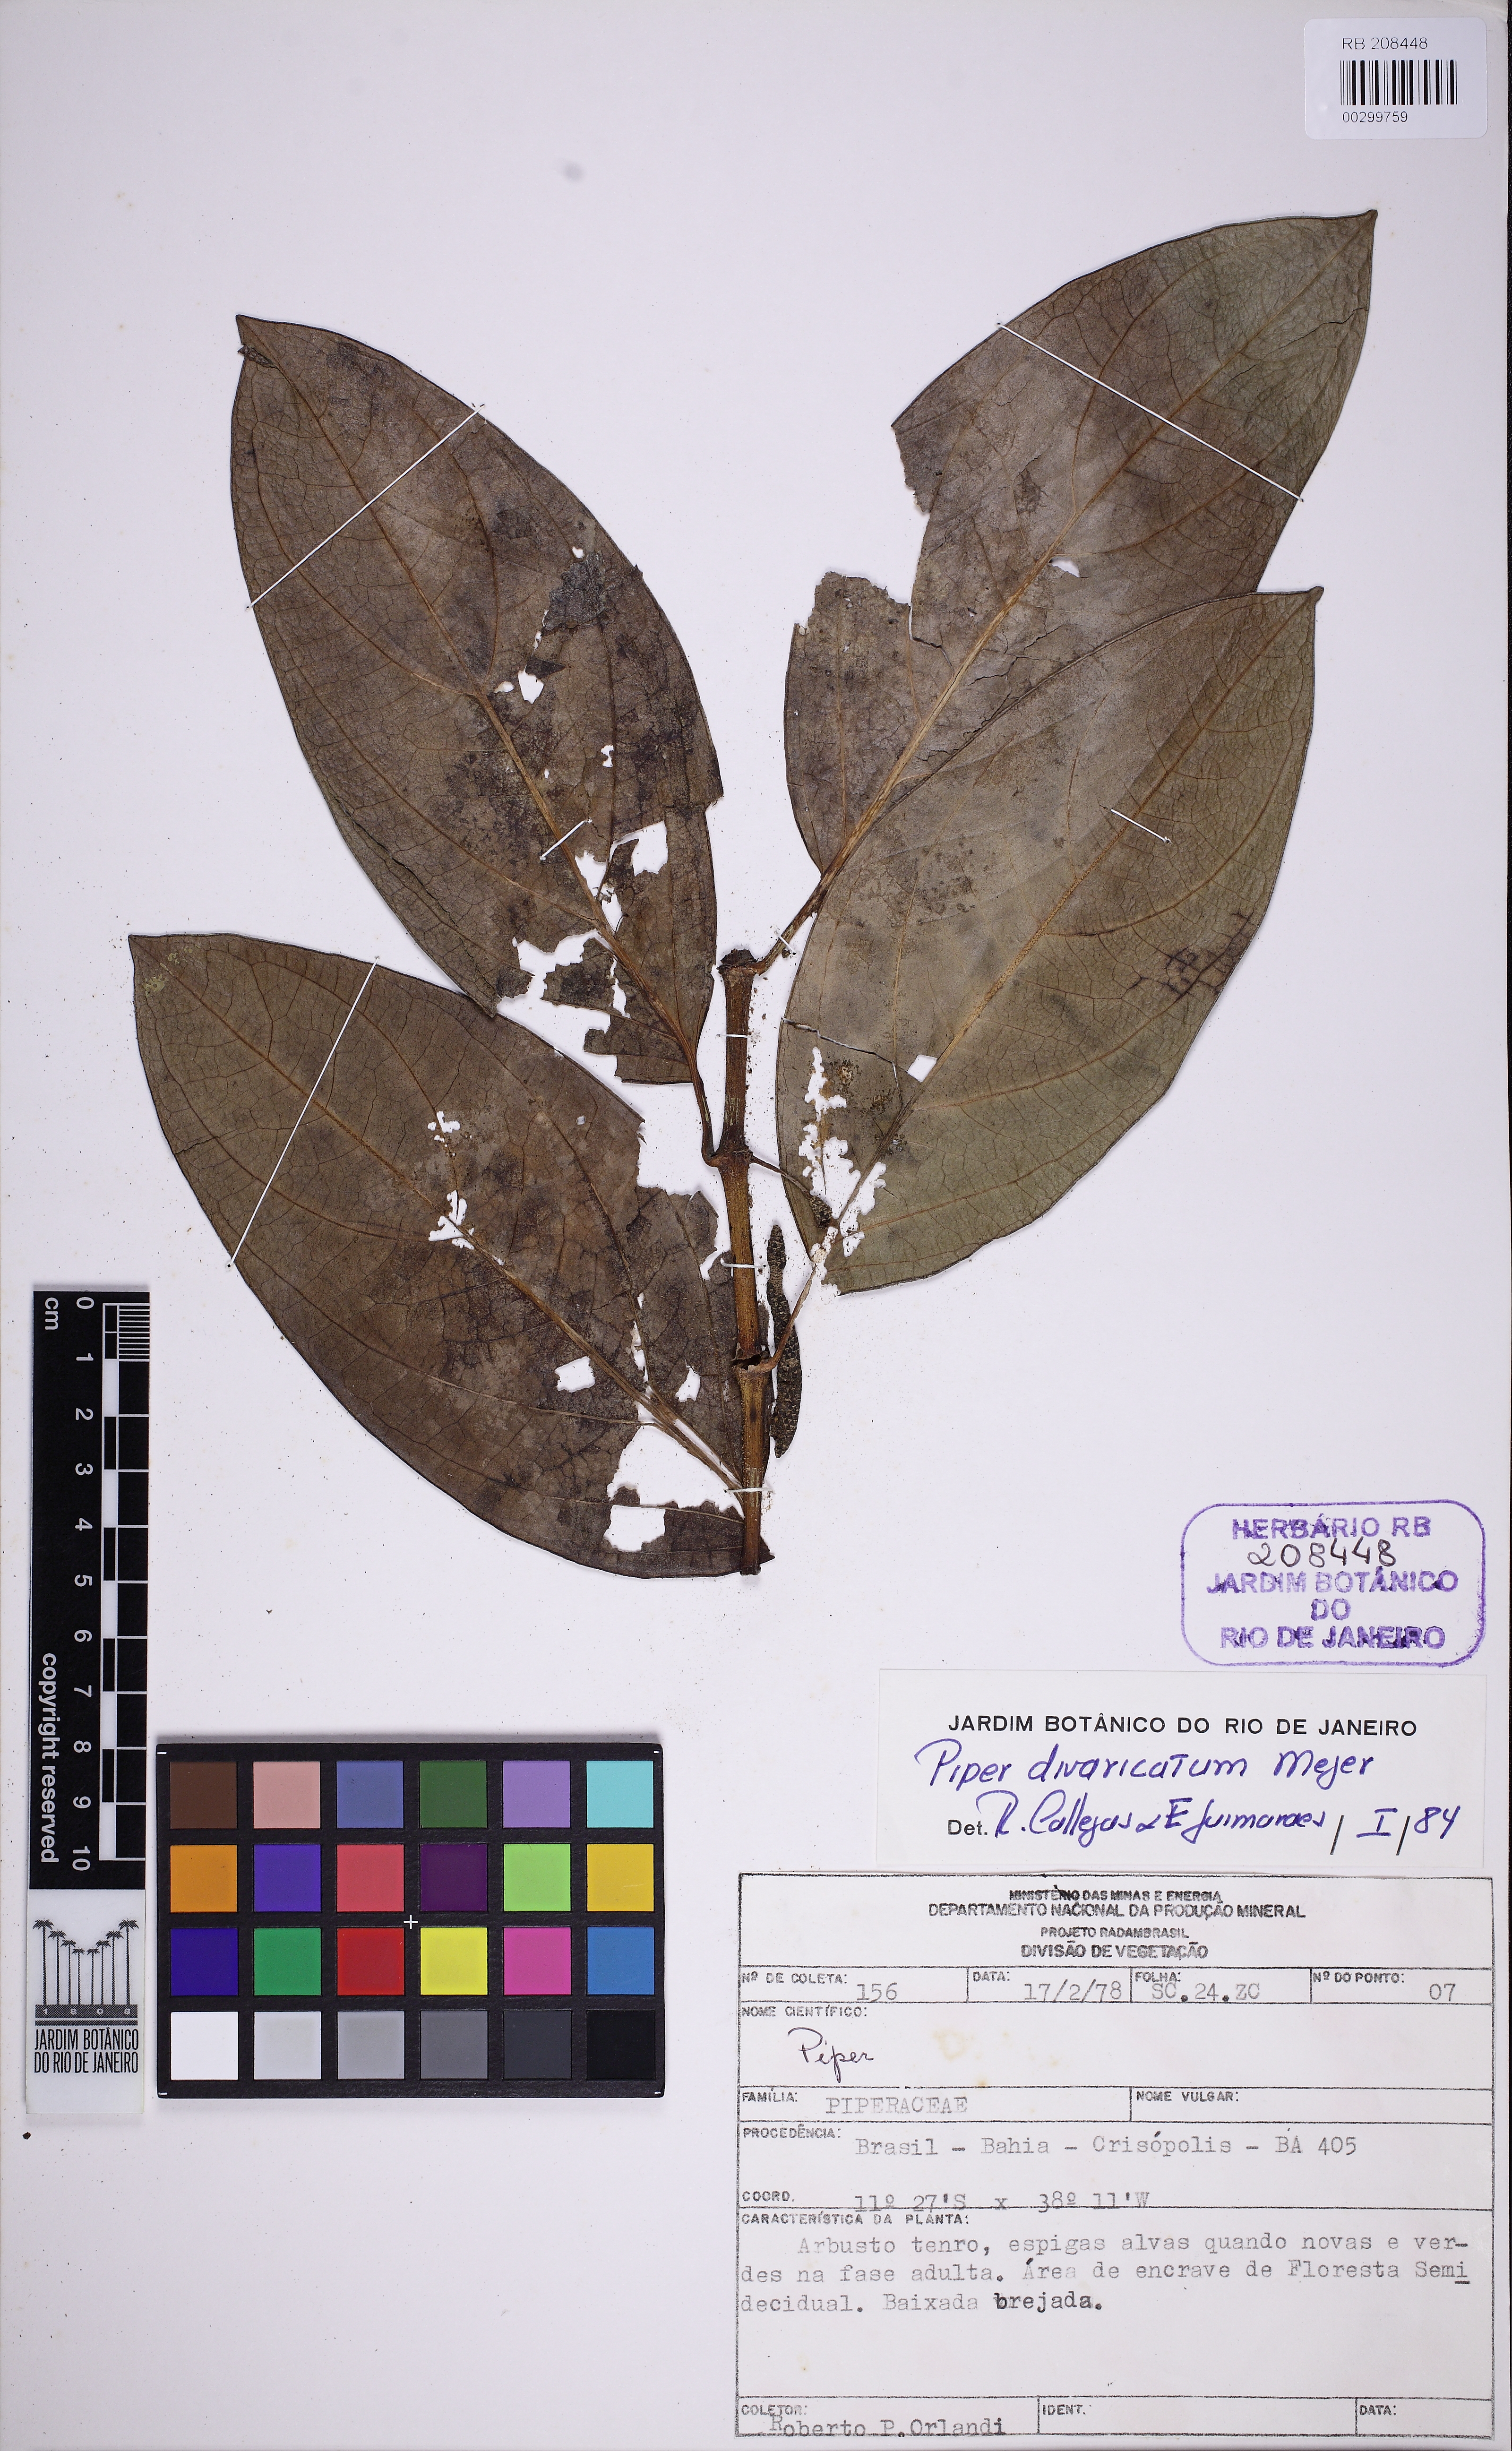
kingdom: Plantae
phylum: Tracheophyta
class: Magnoliopsida
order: Piperales
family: Piperaceae
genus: Piper
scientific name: Piper divaricatum
